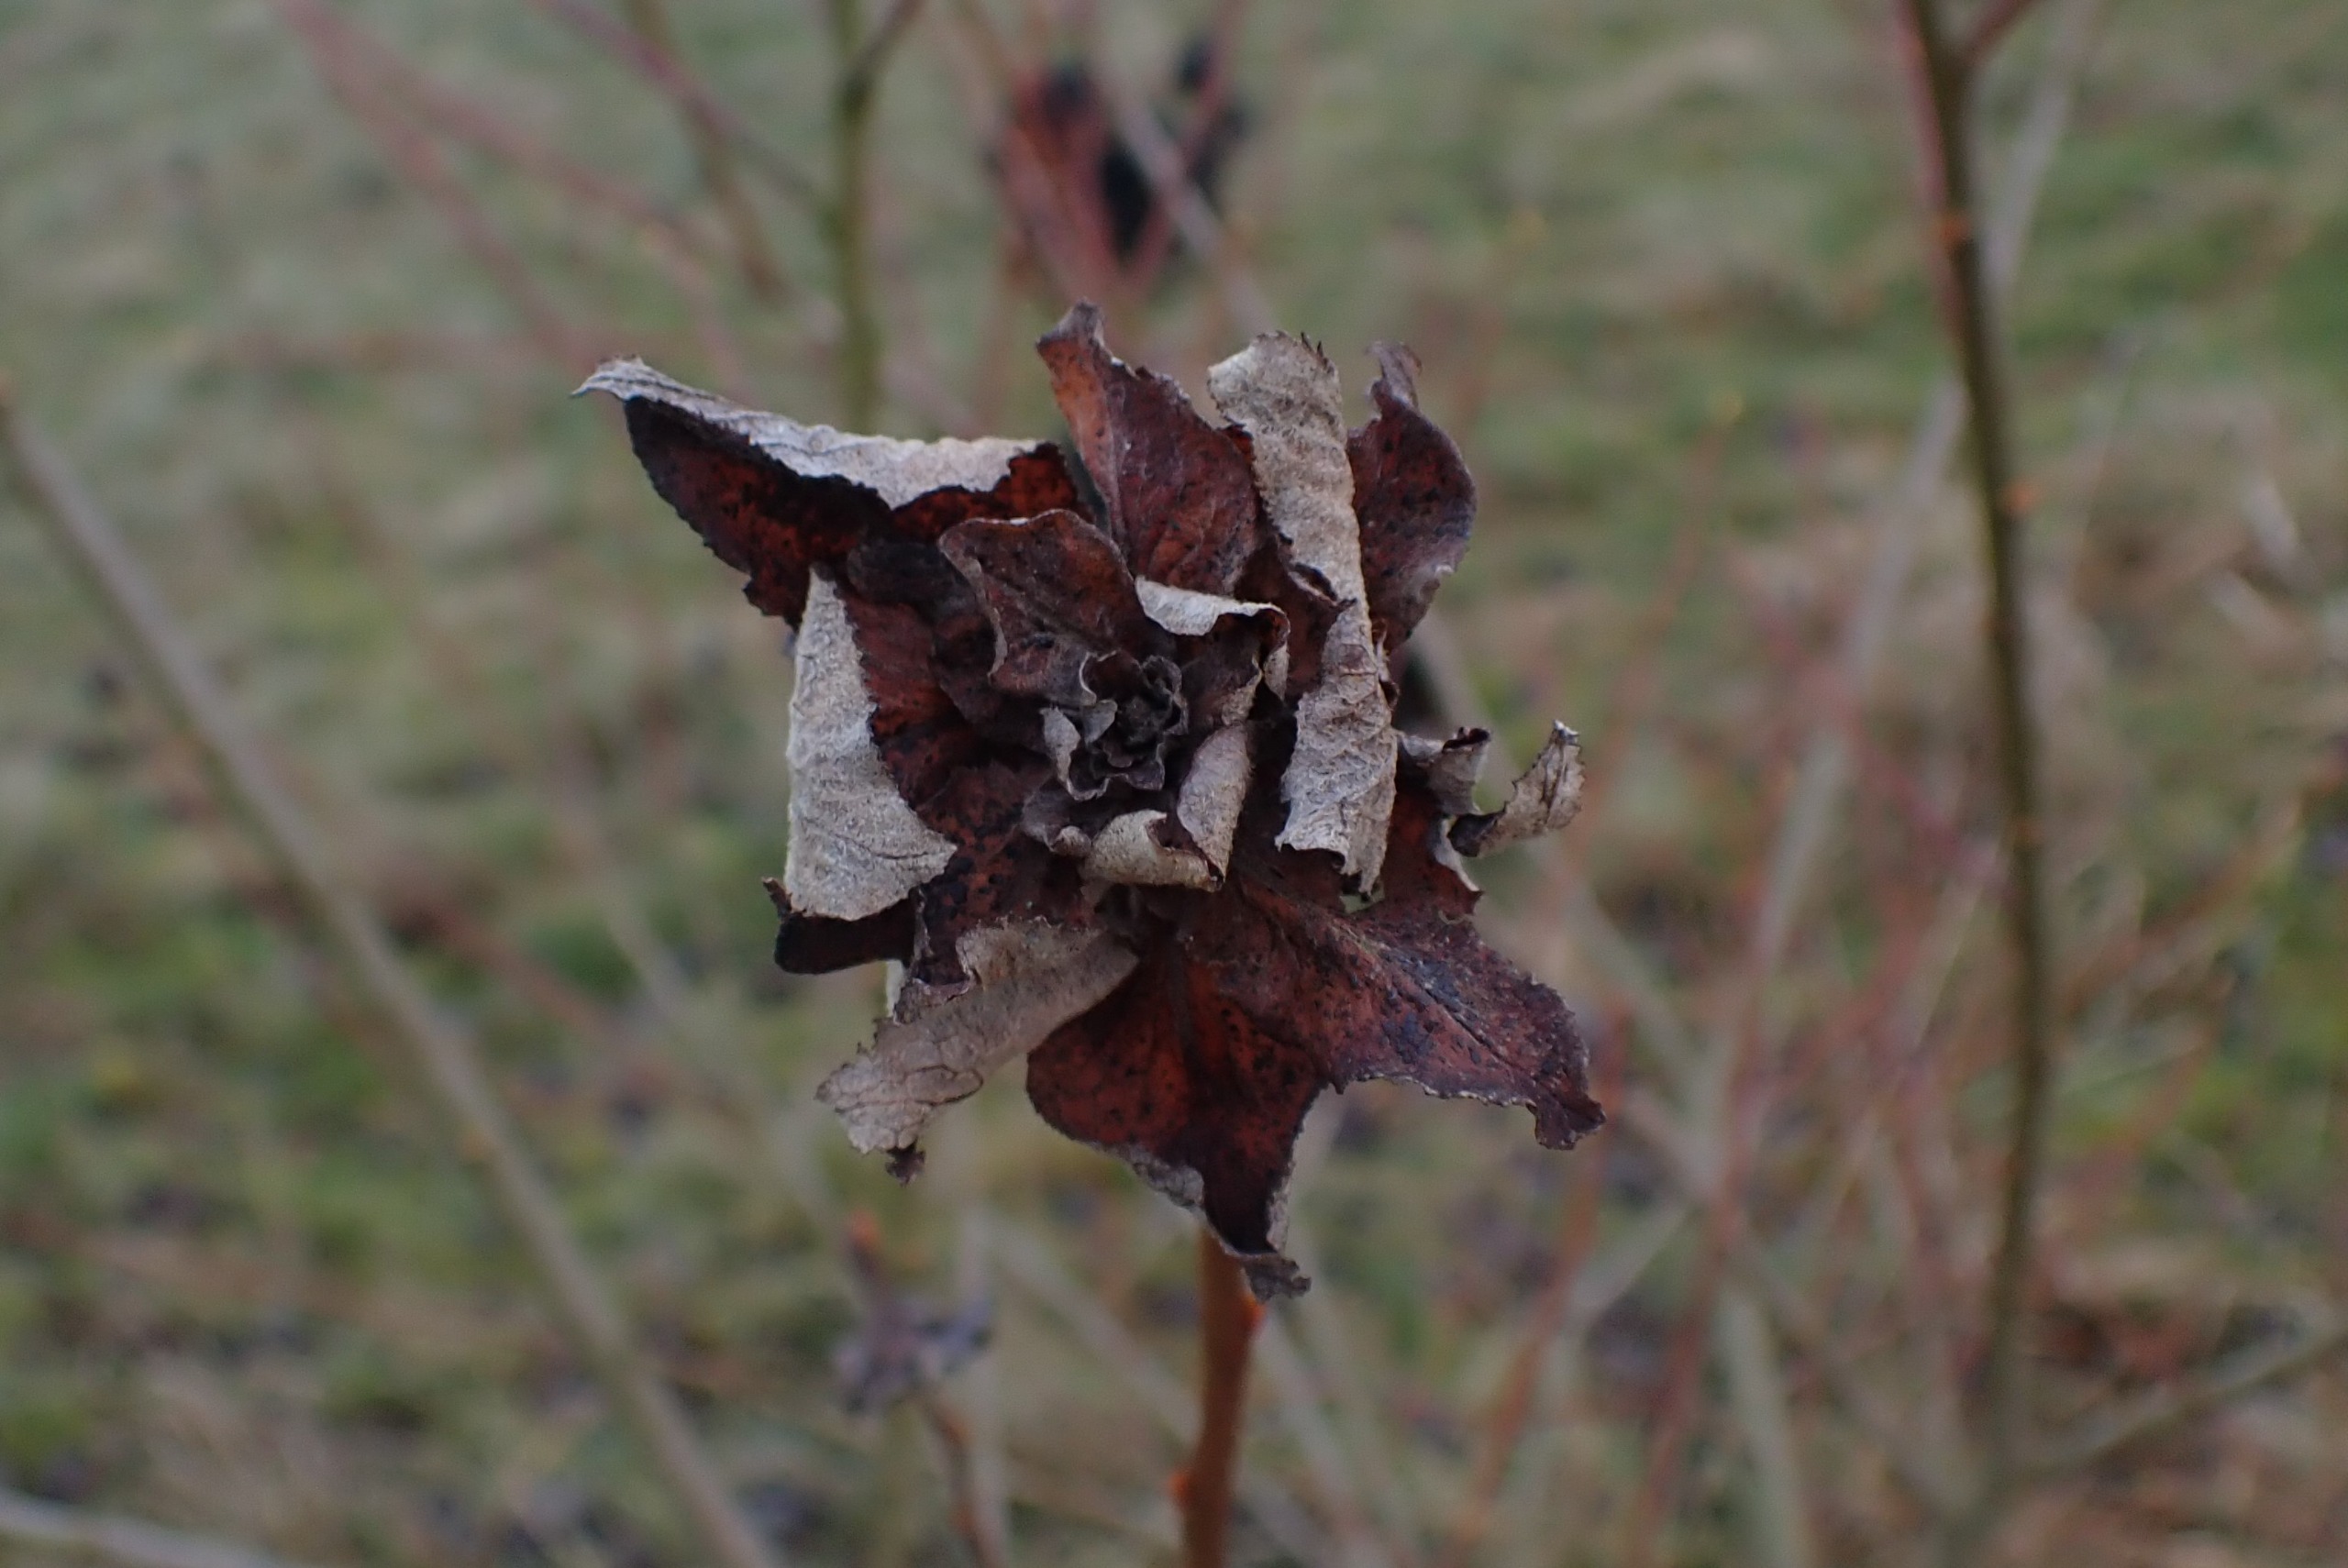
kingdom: Animalia
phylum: Arthropoda
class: Insecta
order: Diptera
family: Cecidomyiidae
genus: Rabdophaga
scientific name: Rabdophaga rosaria
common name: Pilerosetgalmyg
